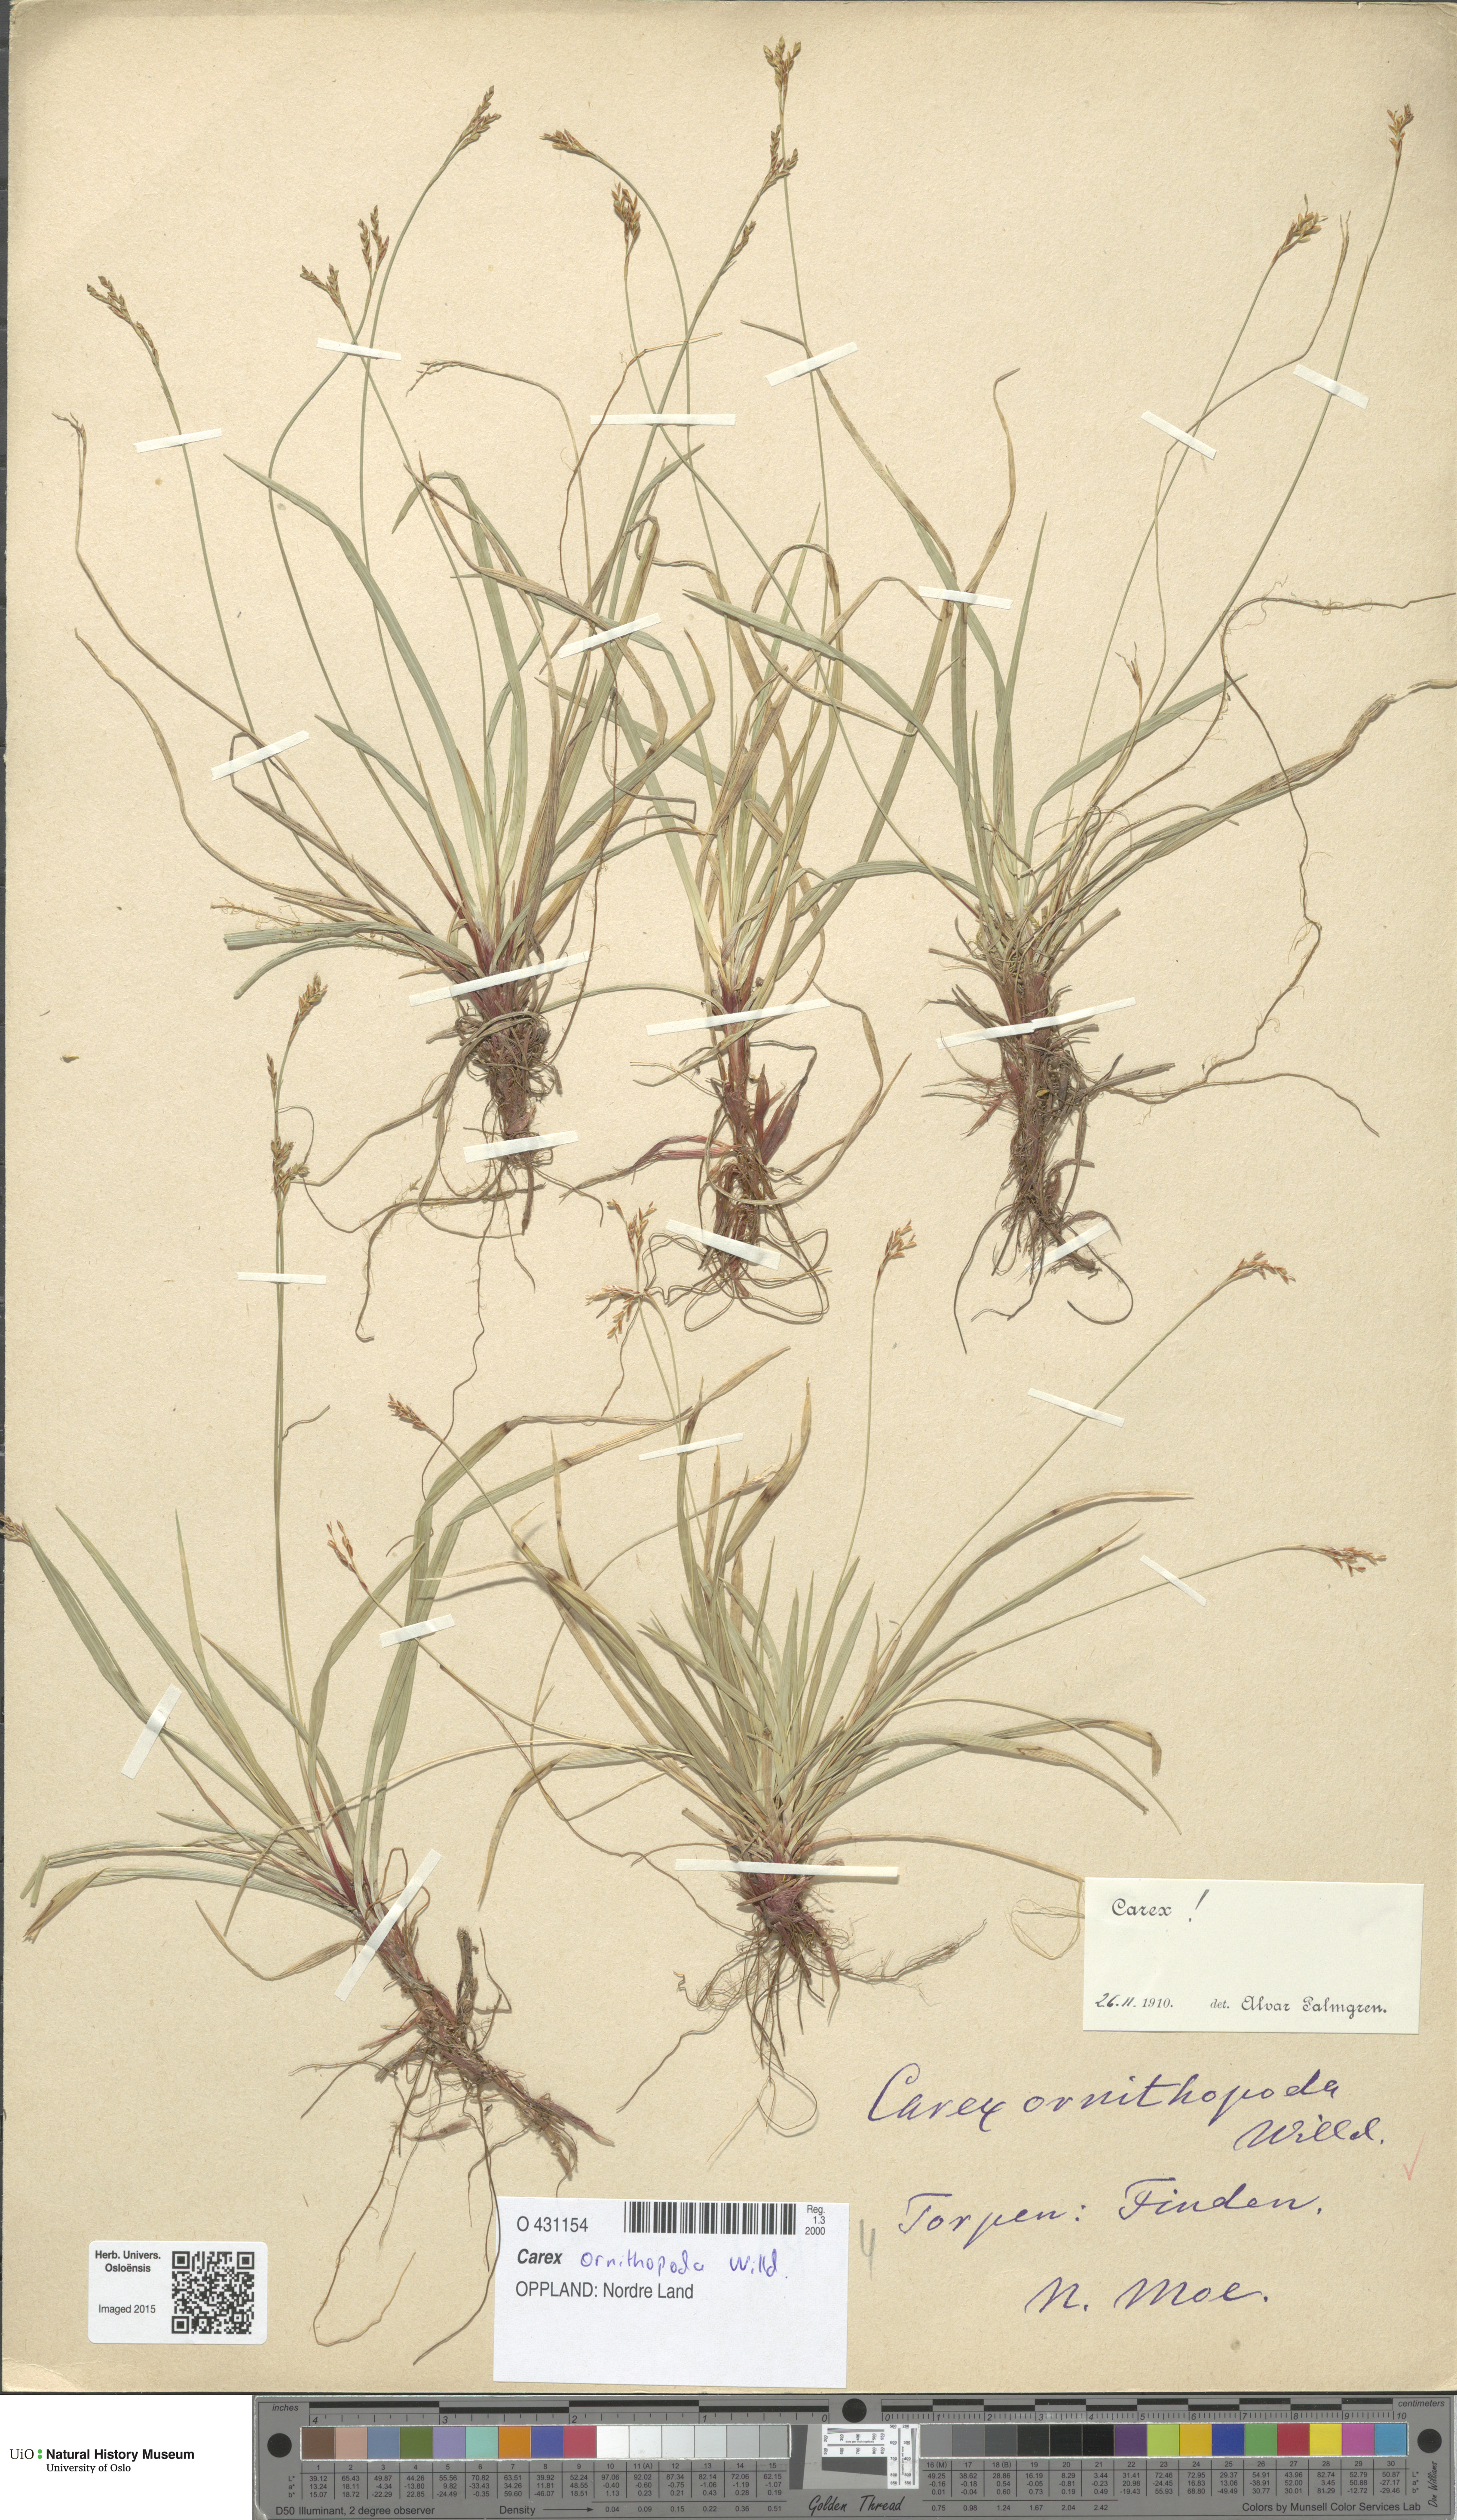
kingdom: Plantae
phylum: Tracheophyta
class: Liliopsida
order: Poales
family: Cyperaceae
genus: Carex
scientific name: Carex ornithopoda
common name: Bird's-foot sedge
